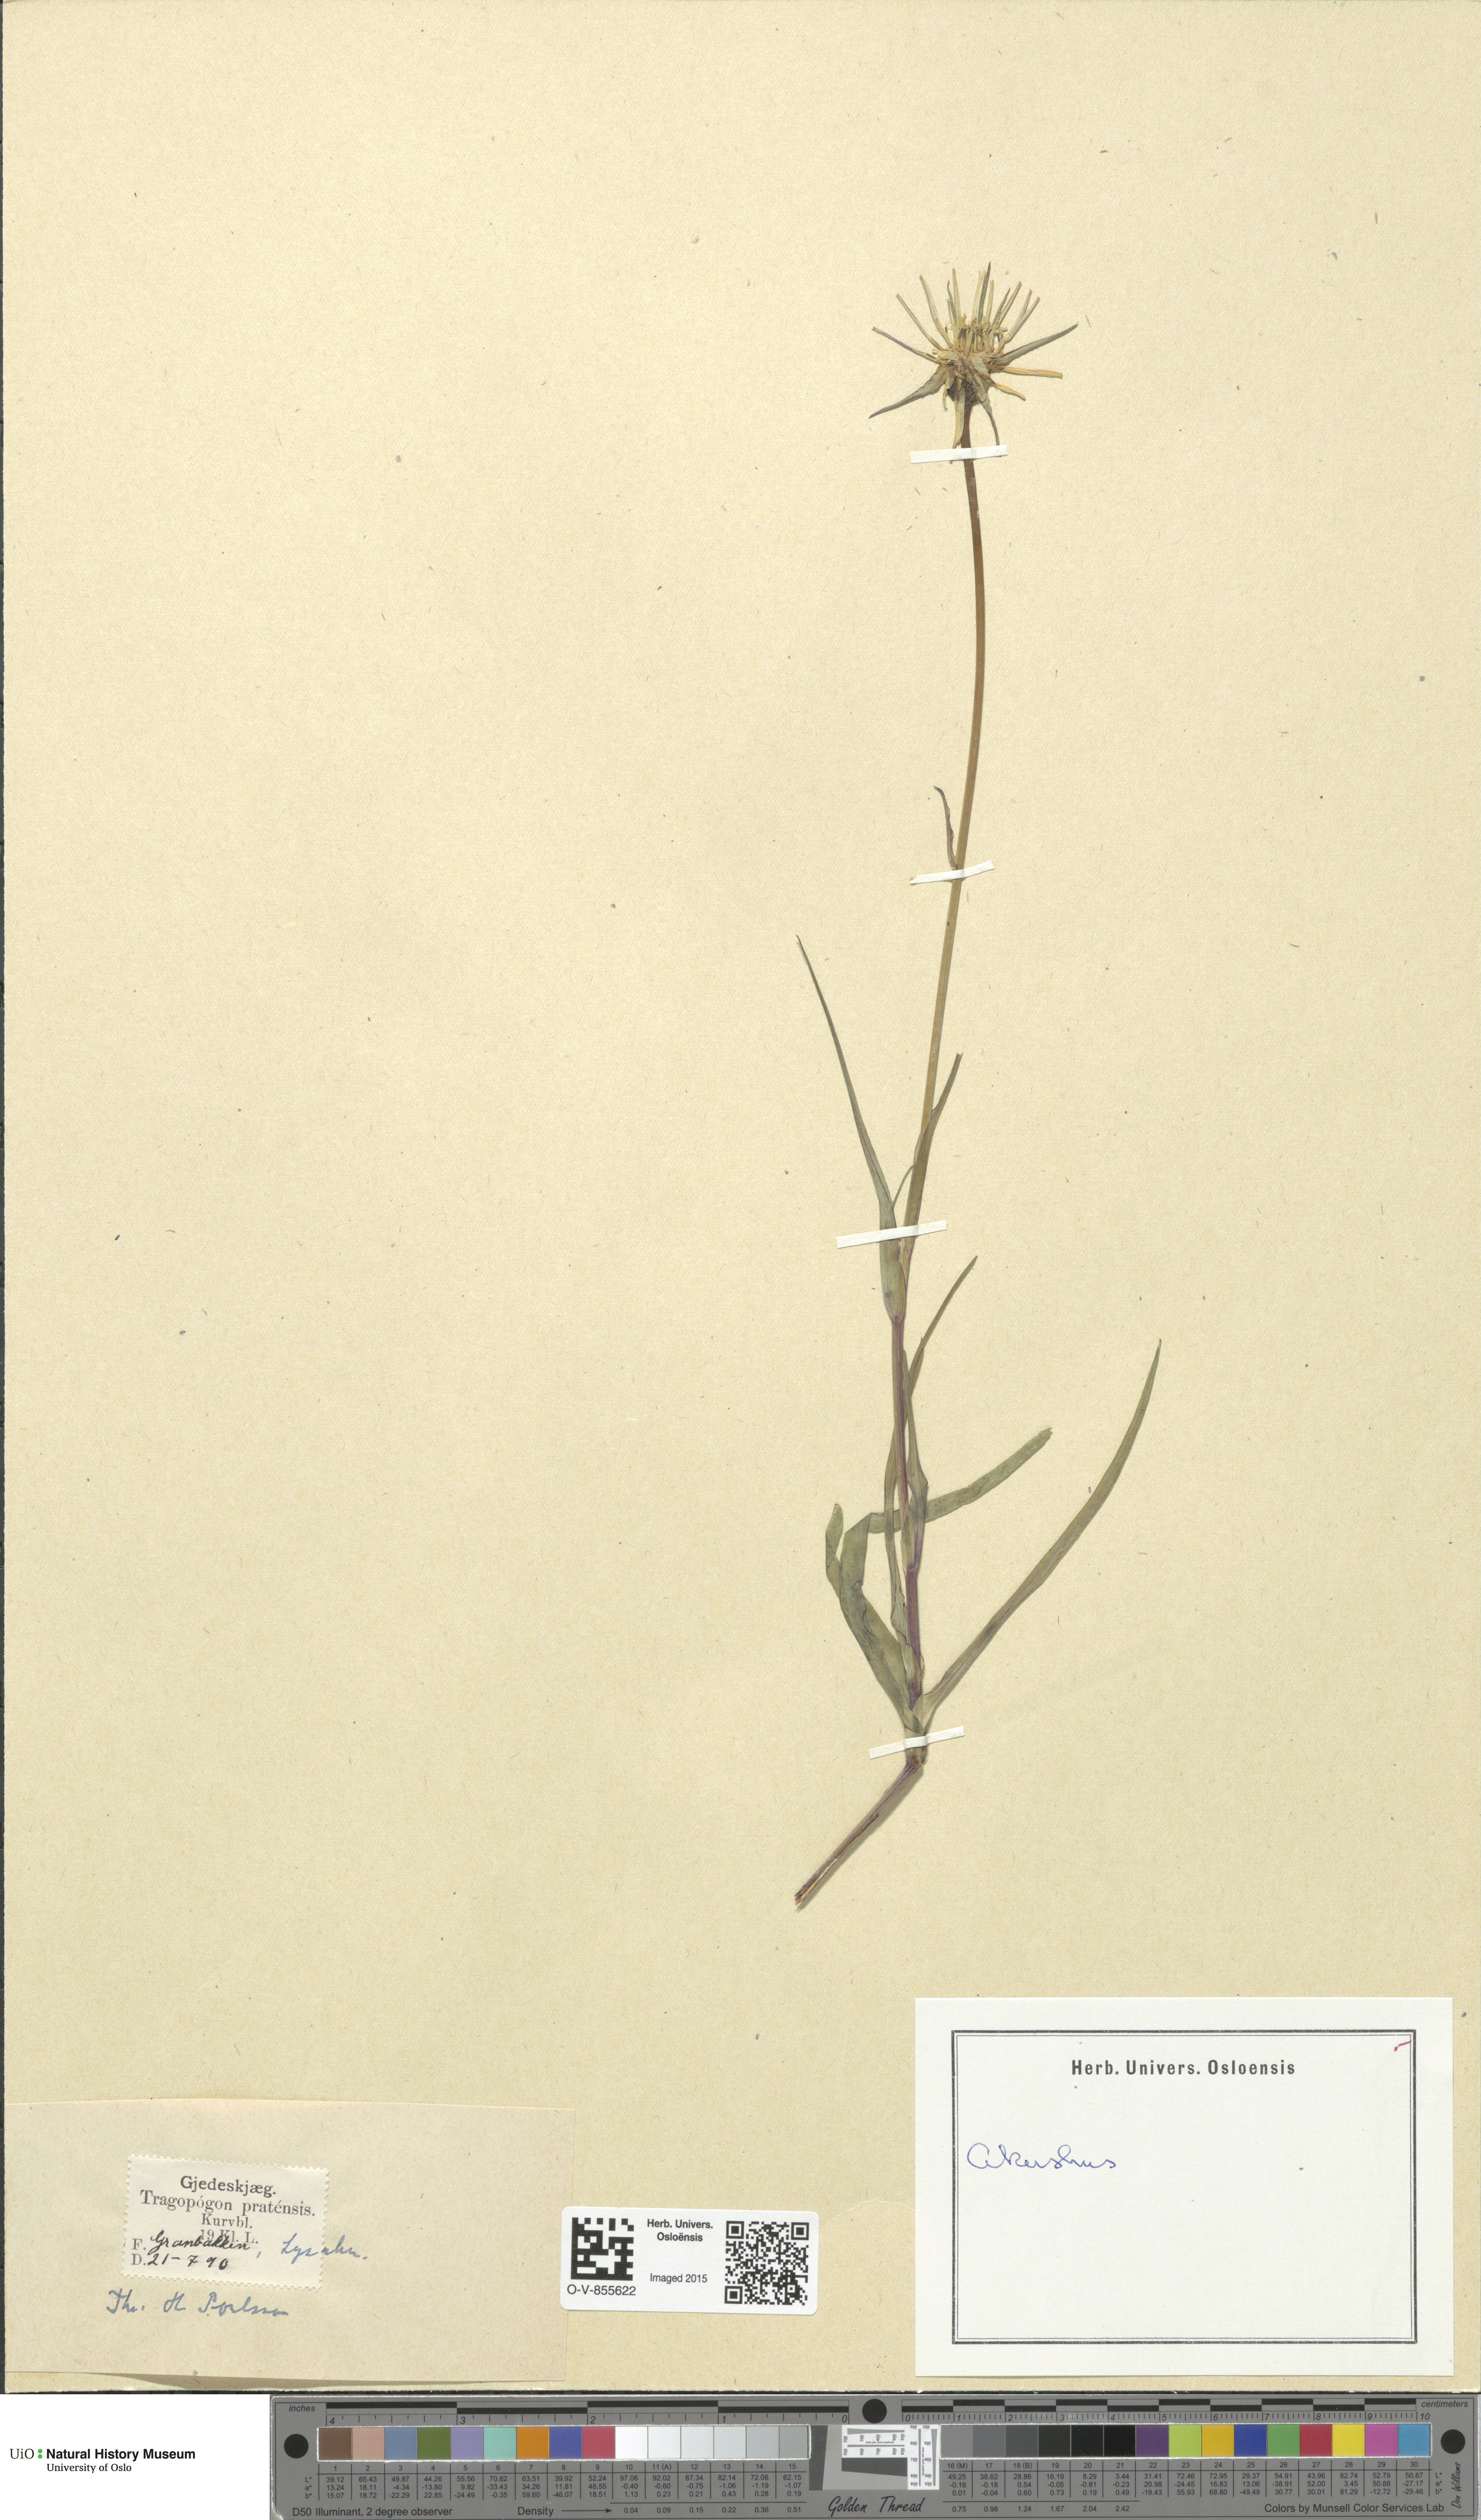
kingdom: Plantae
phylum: Tracheophyta
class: Magnoliopsida
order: Asterales
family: Asteraceae
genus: Tragopogon
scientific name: Tragopogon pratensis
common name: Goat's-beard
